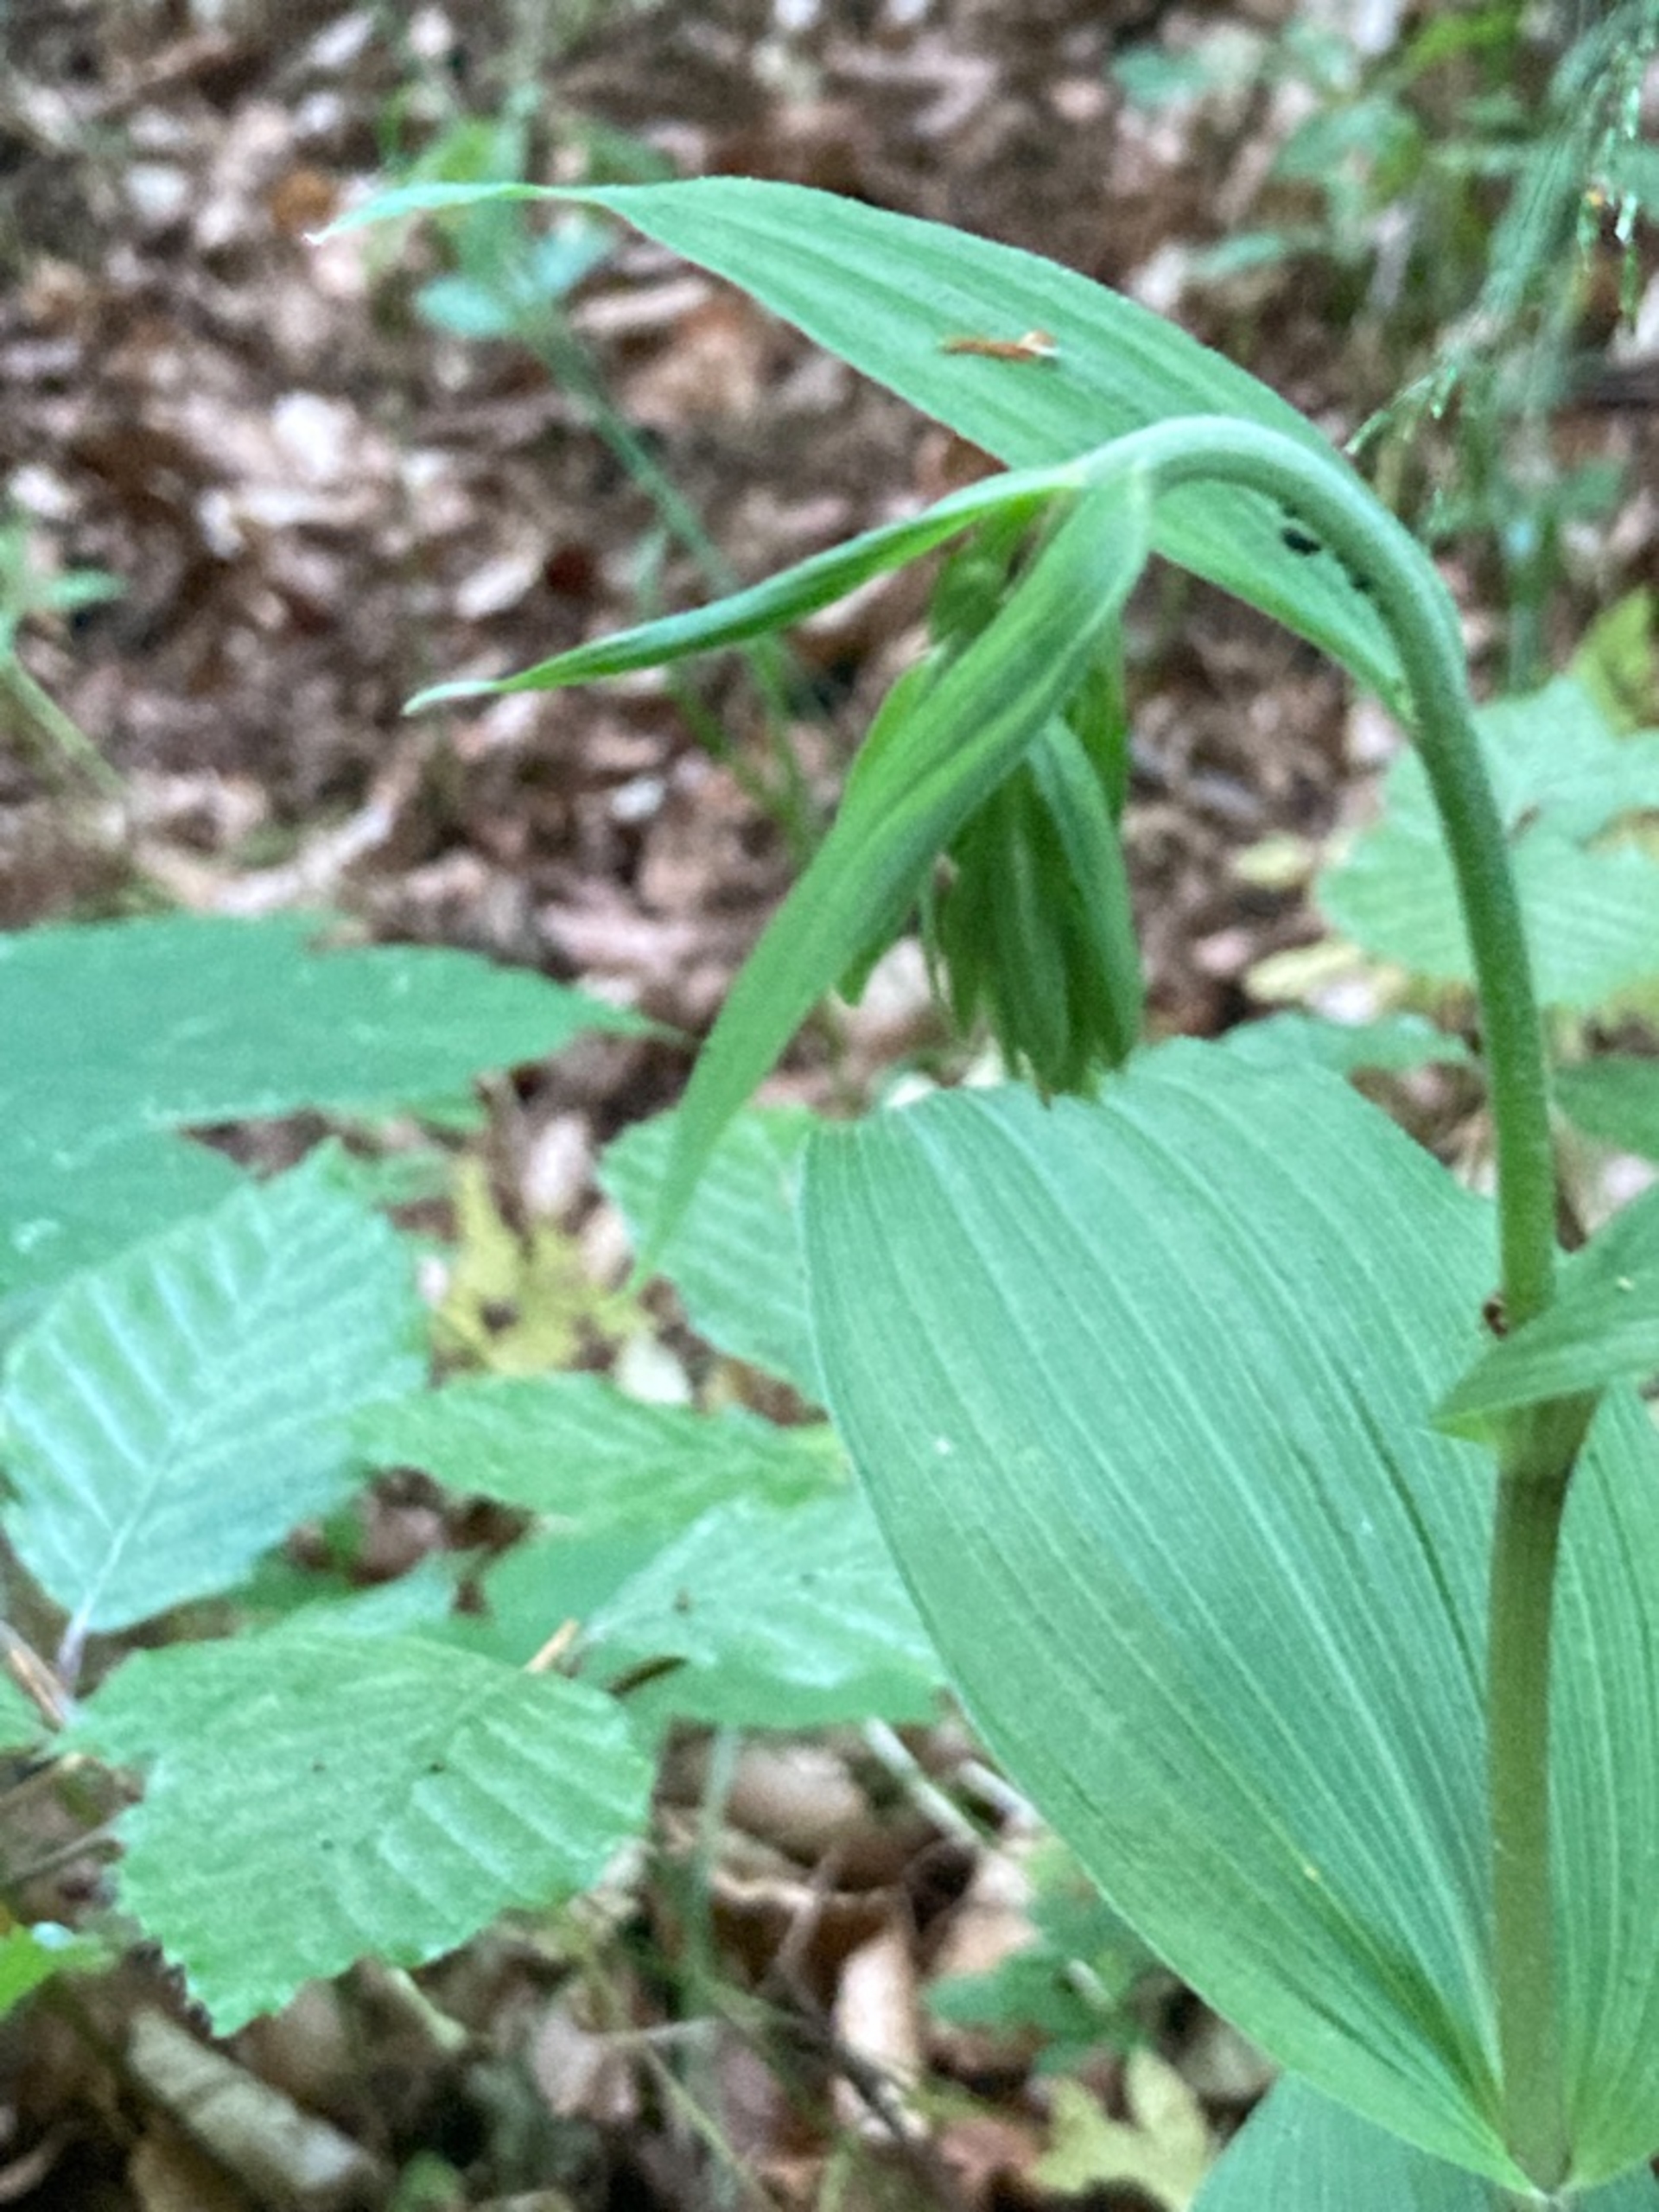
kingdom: Plantae
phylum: Tracheophyta
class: Liliopsida
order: Asparagales
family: Orchidaceae
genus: Epipactis
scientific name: Epipactis helleborine
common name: Skov-hullæbe
